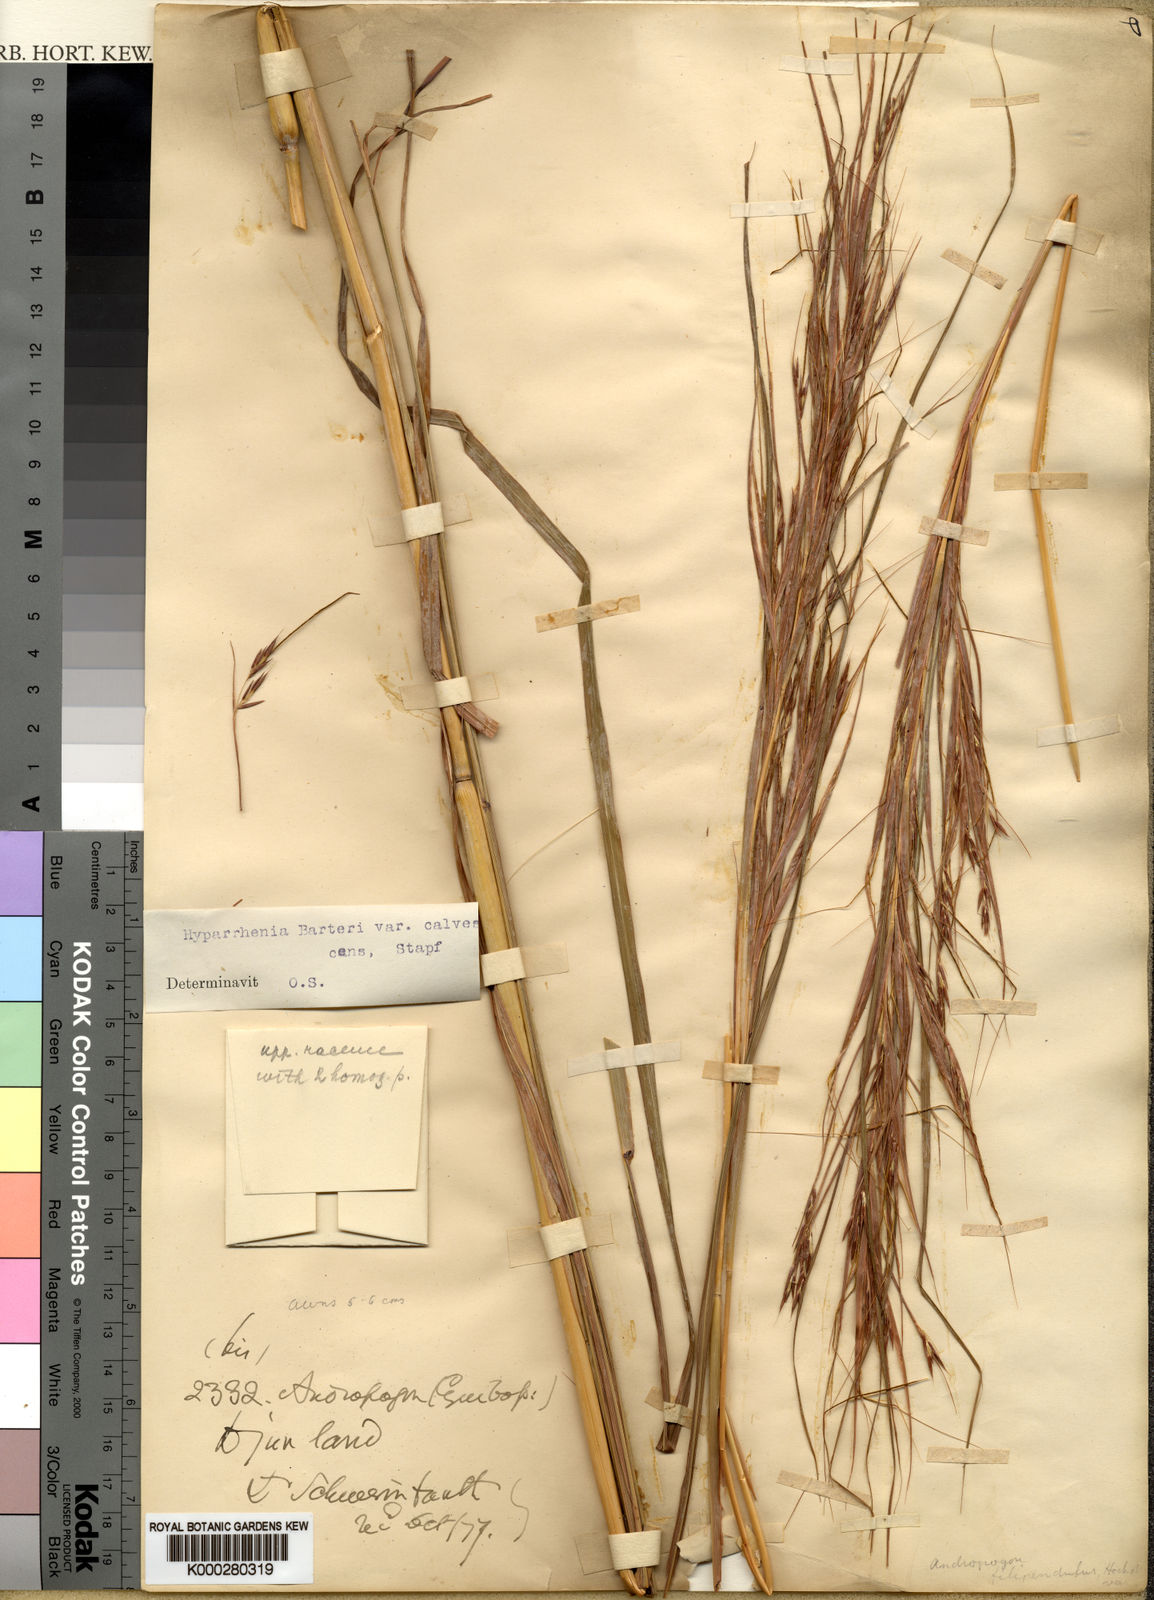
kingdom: Plantae
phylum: Tracheophyta
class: Liliopsida
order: Poales
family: Poaceae
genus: Hyparrhenia
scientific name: Hyparrhenia figariana
